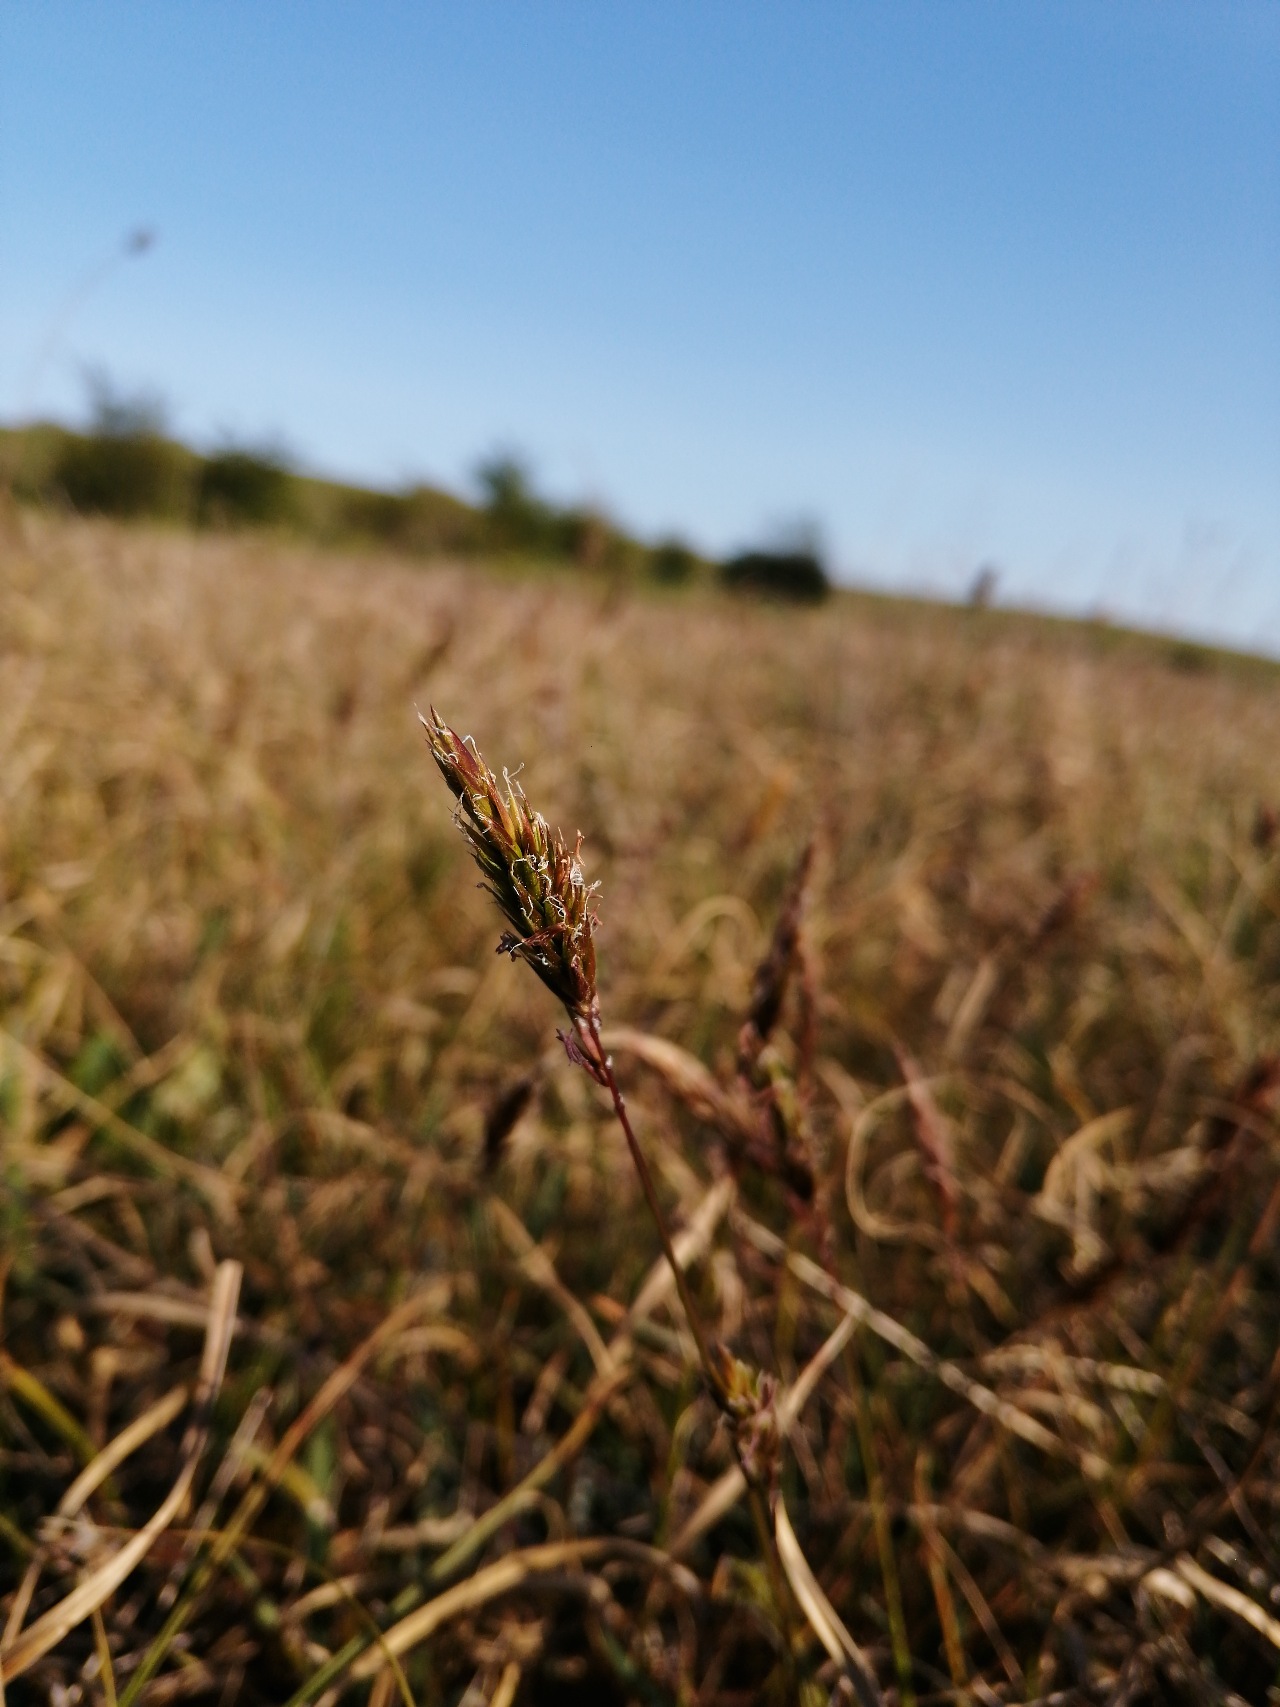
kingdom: Plantae
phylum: Tracheophyta
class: Liliopsida
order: Poales
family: Poaceae
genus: Anthoxanthum
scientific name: Anthoxanthum odoratum
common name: Vellugtende gulaks
